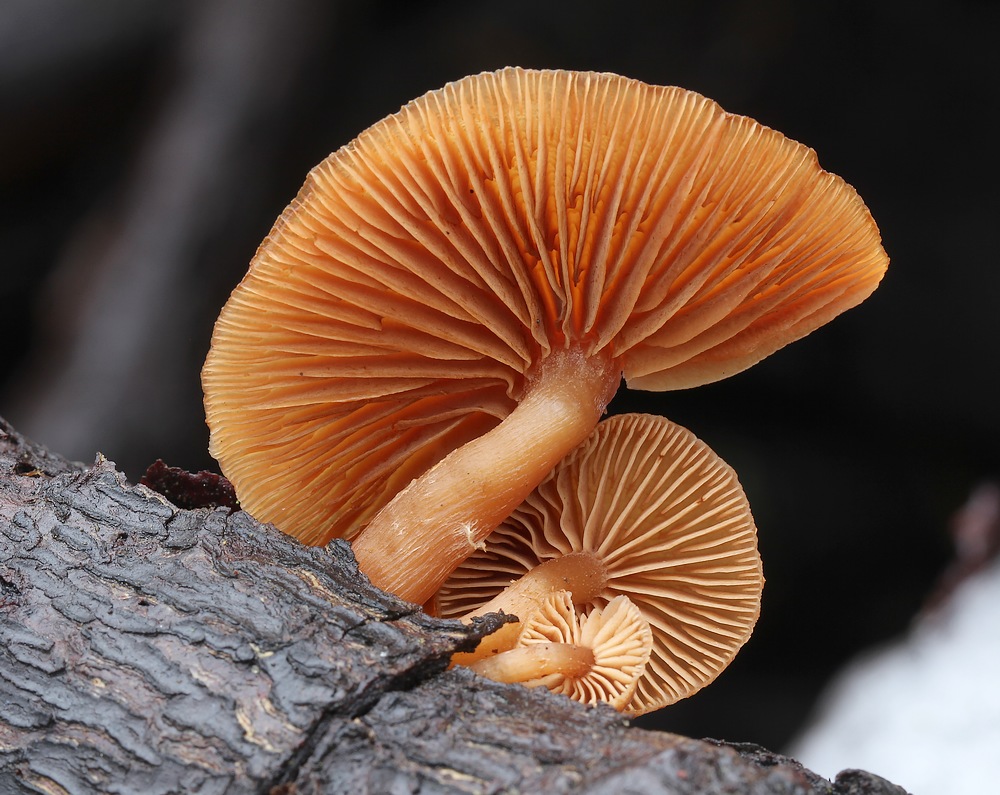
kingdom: Fungi
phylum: Basidiomycota
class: Agaricomycetes
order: Agaricales
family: Tubariaceae
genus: Tubaria
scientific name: Tubaria furfuracea
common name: kliddet fnughat
